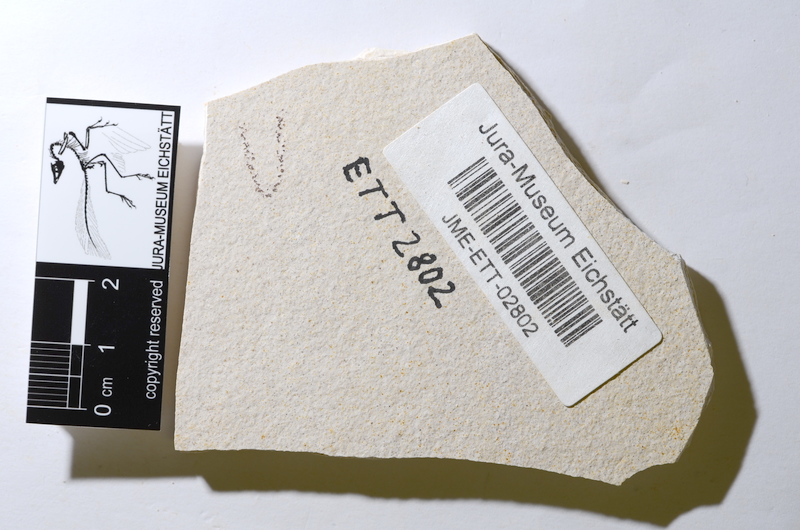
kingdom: Animalia
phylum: Chordata
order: Salmoniformes
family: Orthogonikleithridae
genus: Orthogonikleithrus
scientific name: Orthogonikleithrus hoelli
